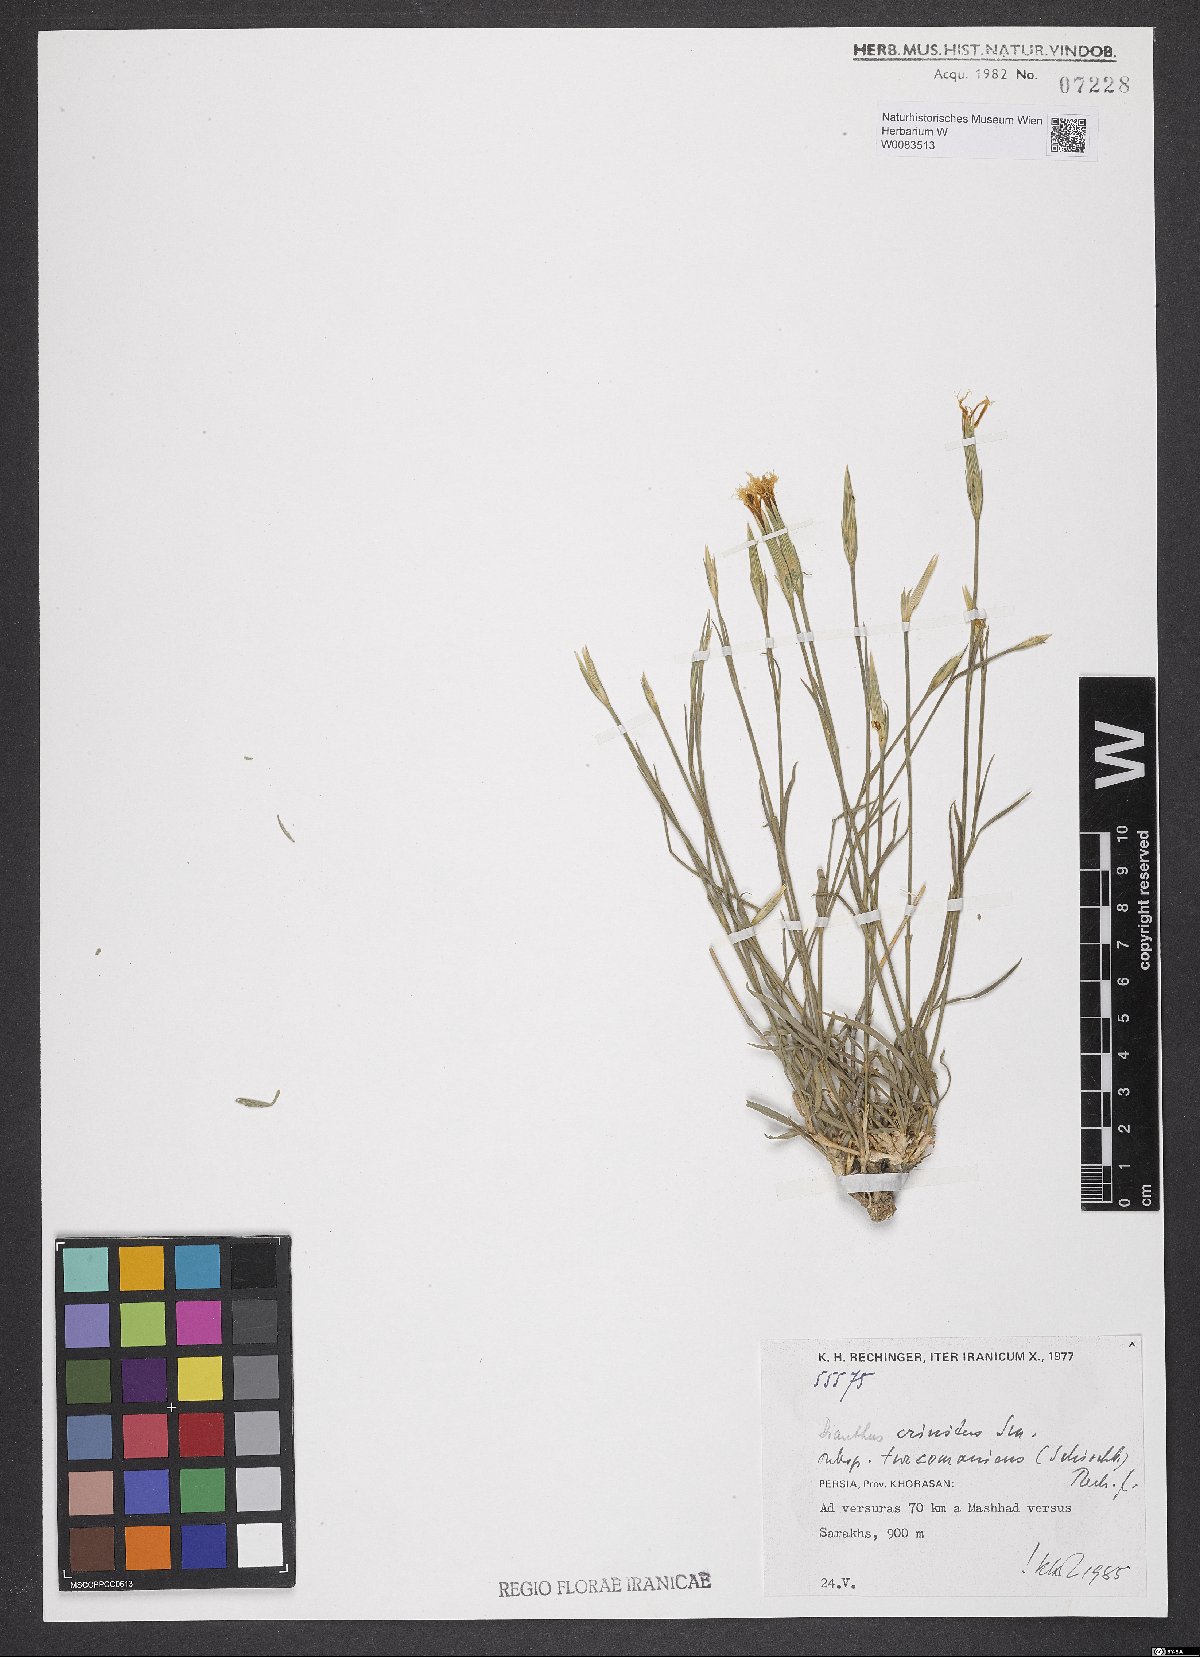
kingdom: Plantae
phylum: Tracheophyta
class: Magnoliopsida
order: Caryophyllales
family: Caryophyllaceae
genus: Dianthus
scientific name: Dianthus turkestanicus
